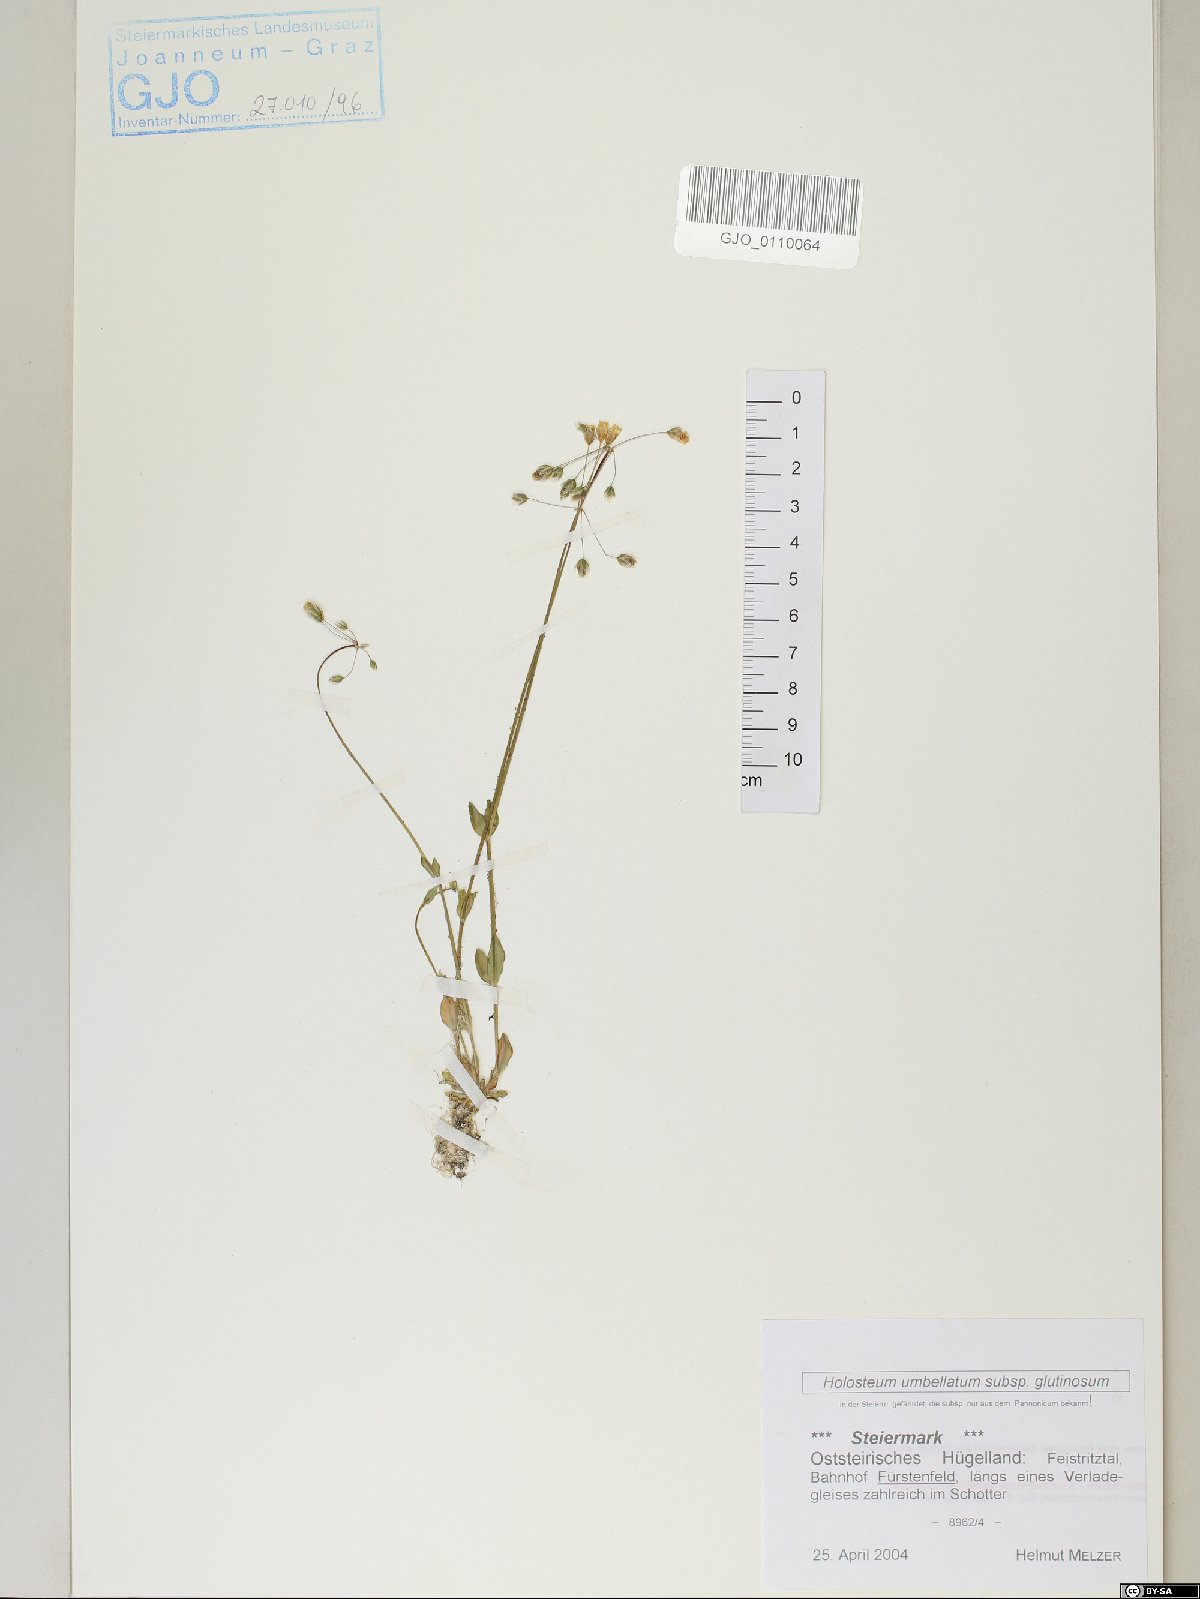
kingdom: Plantae
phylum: Tracheophyta
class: Magnoliopsida
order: Caryophyllales
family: Caryophyllaceae
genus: Holosteum
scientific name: Holosteum glutinosum
